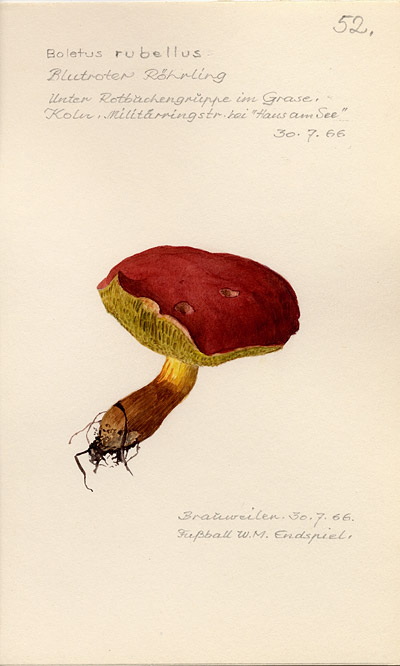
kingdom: Fungi
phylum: Basidiomycota
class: Agaricomycetes
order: Boletales
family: Boletaceae
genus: Hortiboletus
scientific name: Hortiboletus rubellus
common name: Ruby bolete
